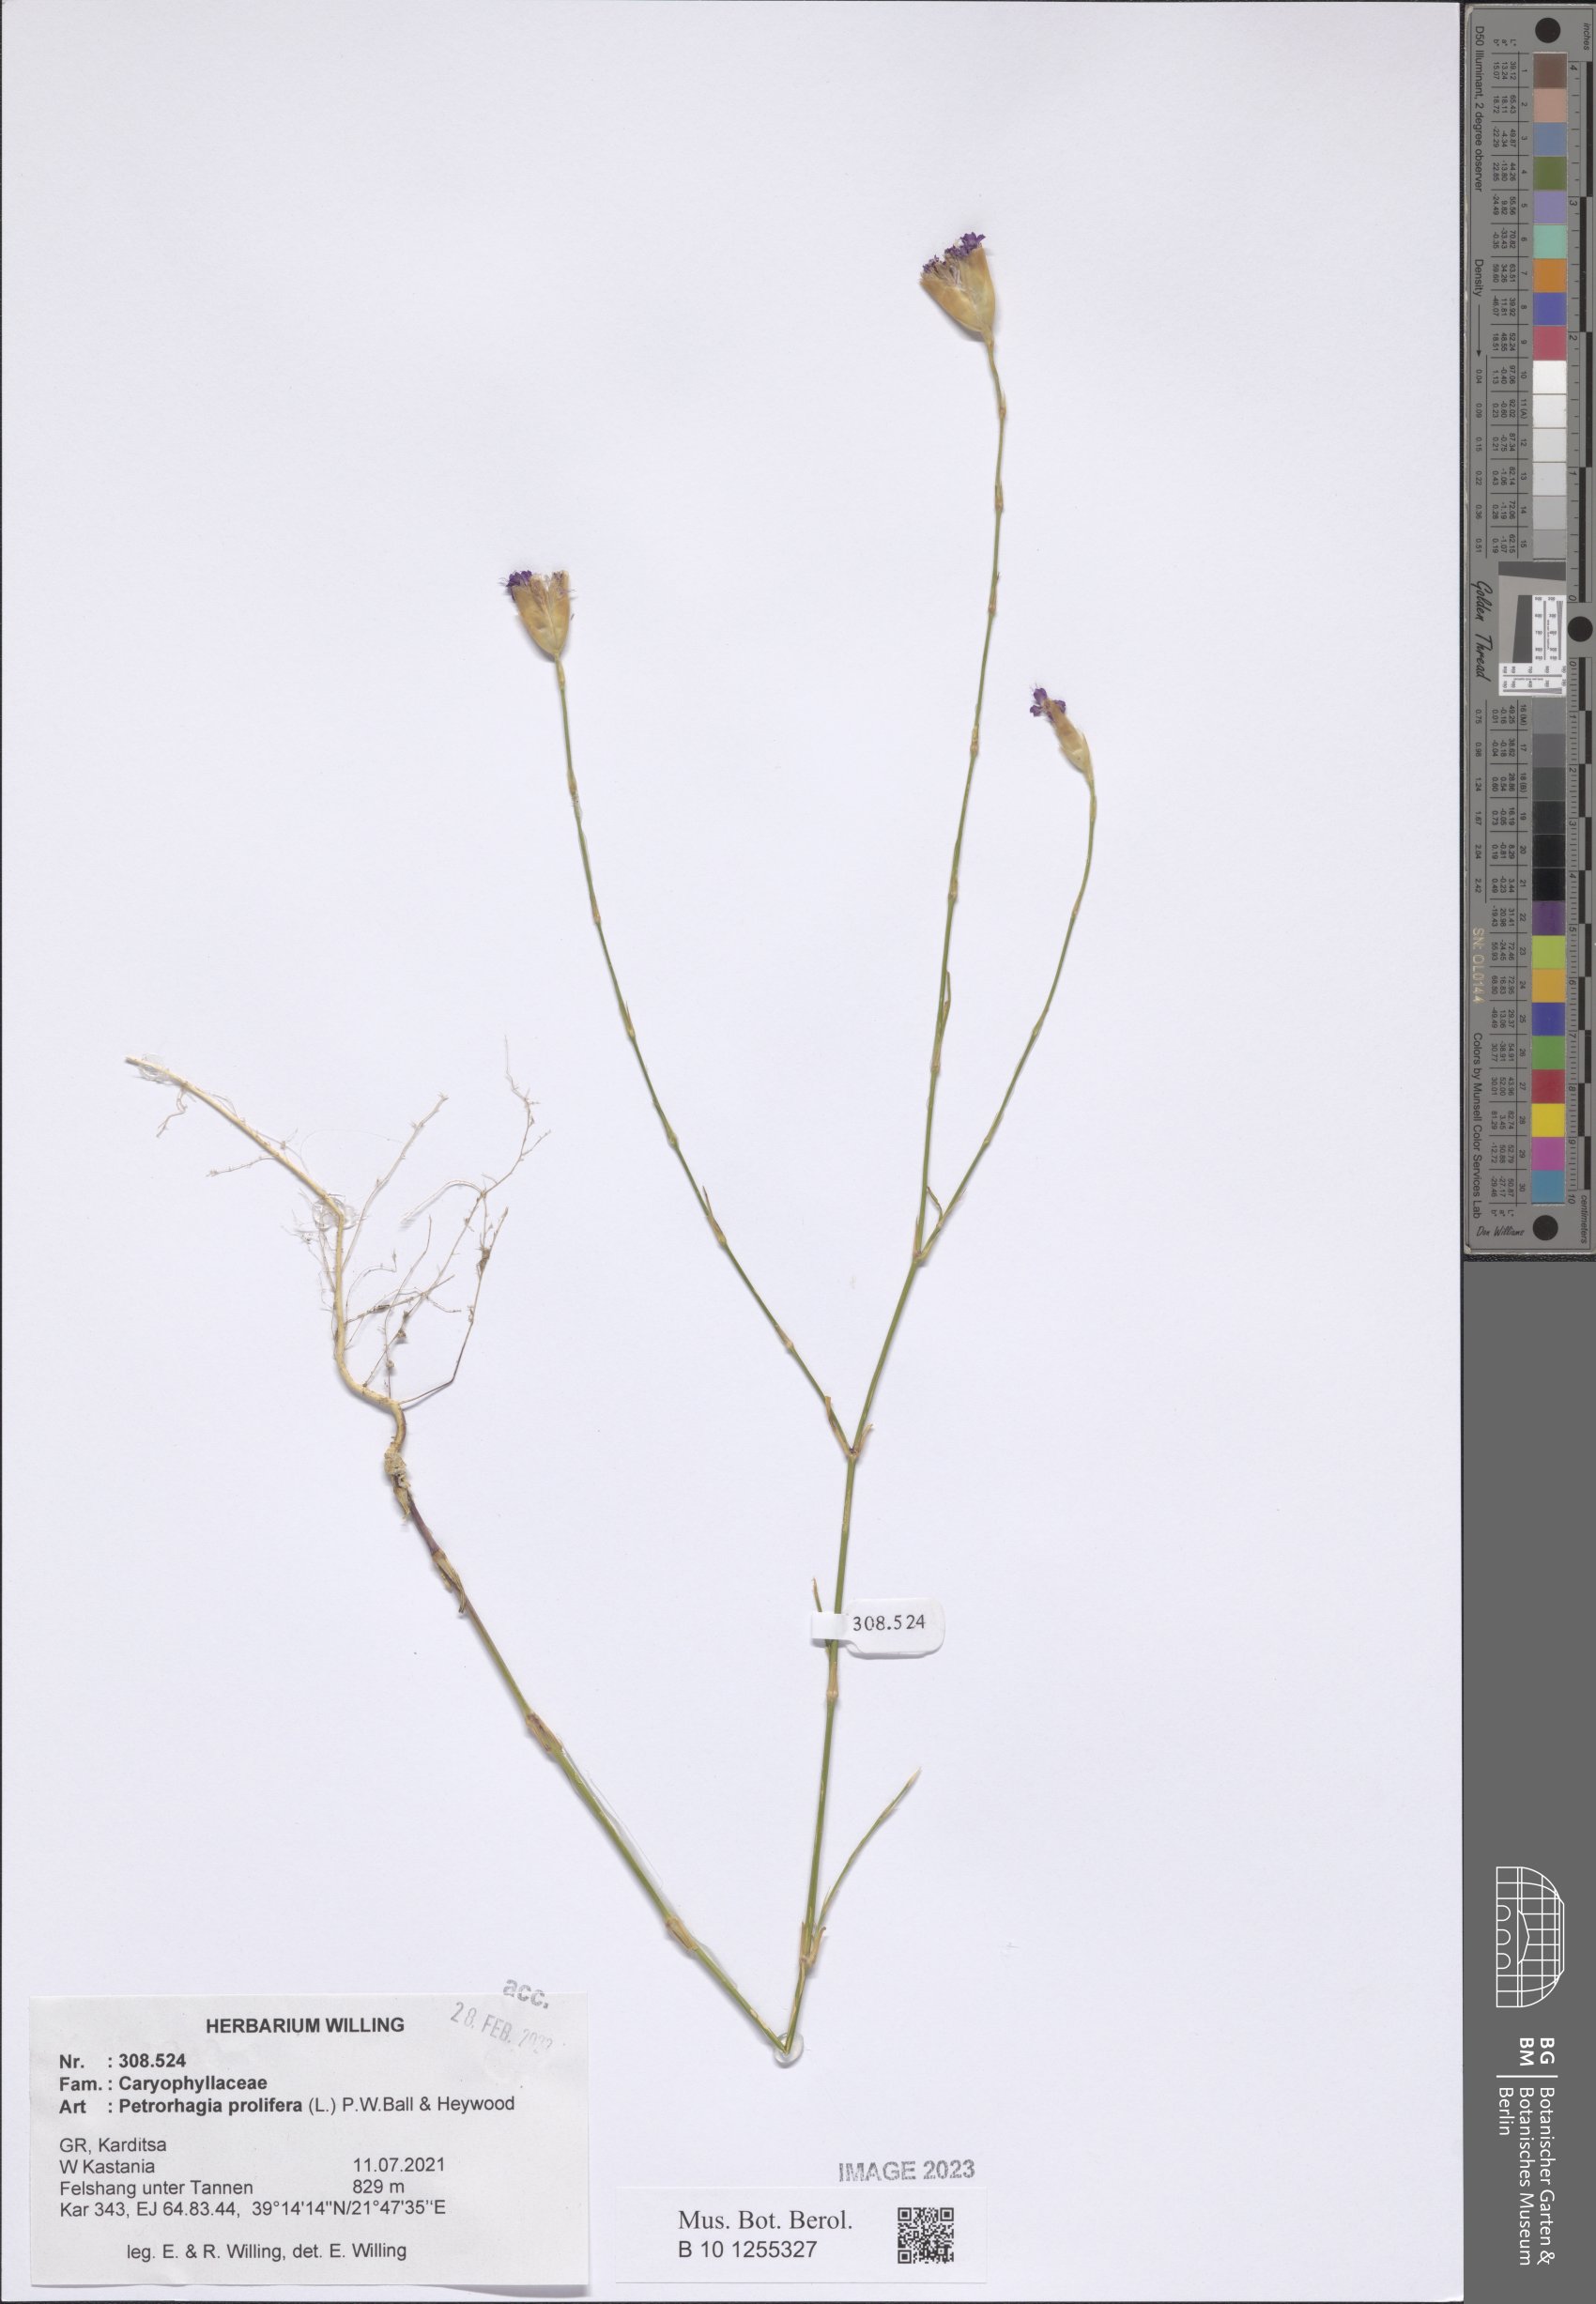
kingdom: Plantae
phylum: Tracheophyta
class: Magnoliopsida
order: Caryophyllales
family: Caryophyllaceae
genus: Petrorhagia
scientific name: Petrorhagia prolifera
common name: Proliferous pink
